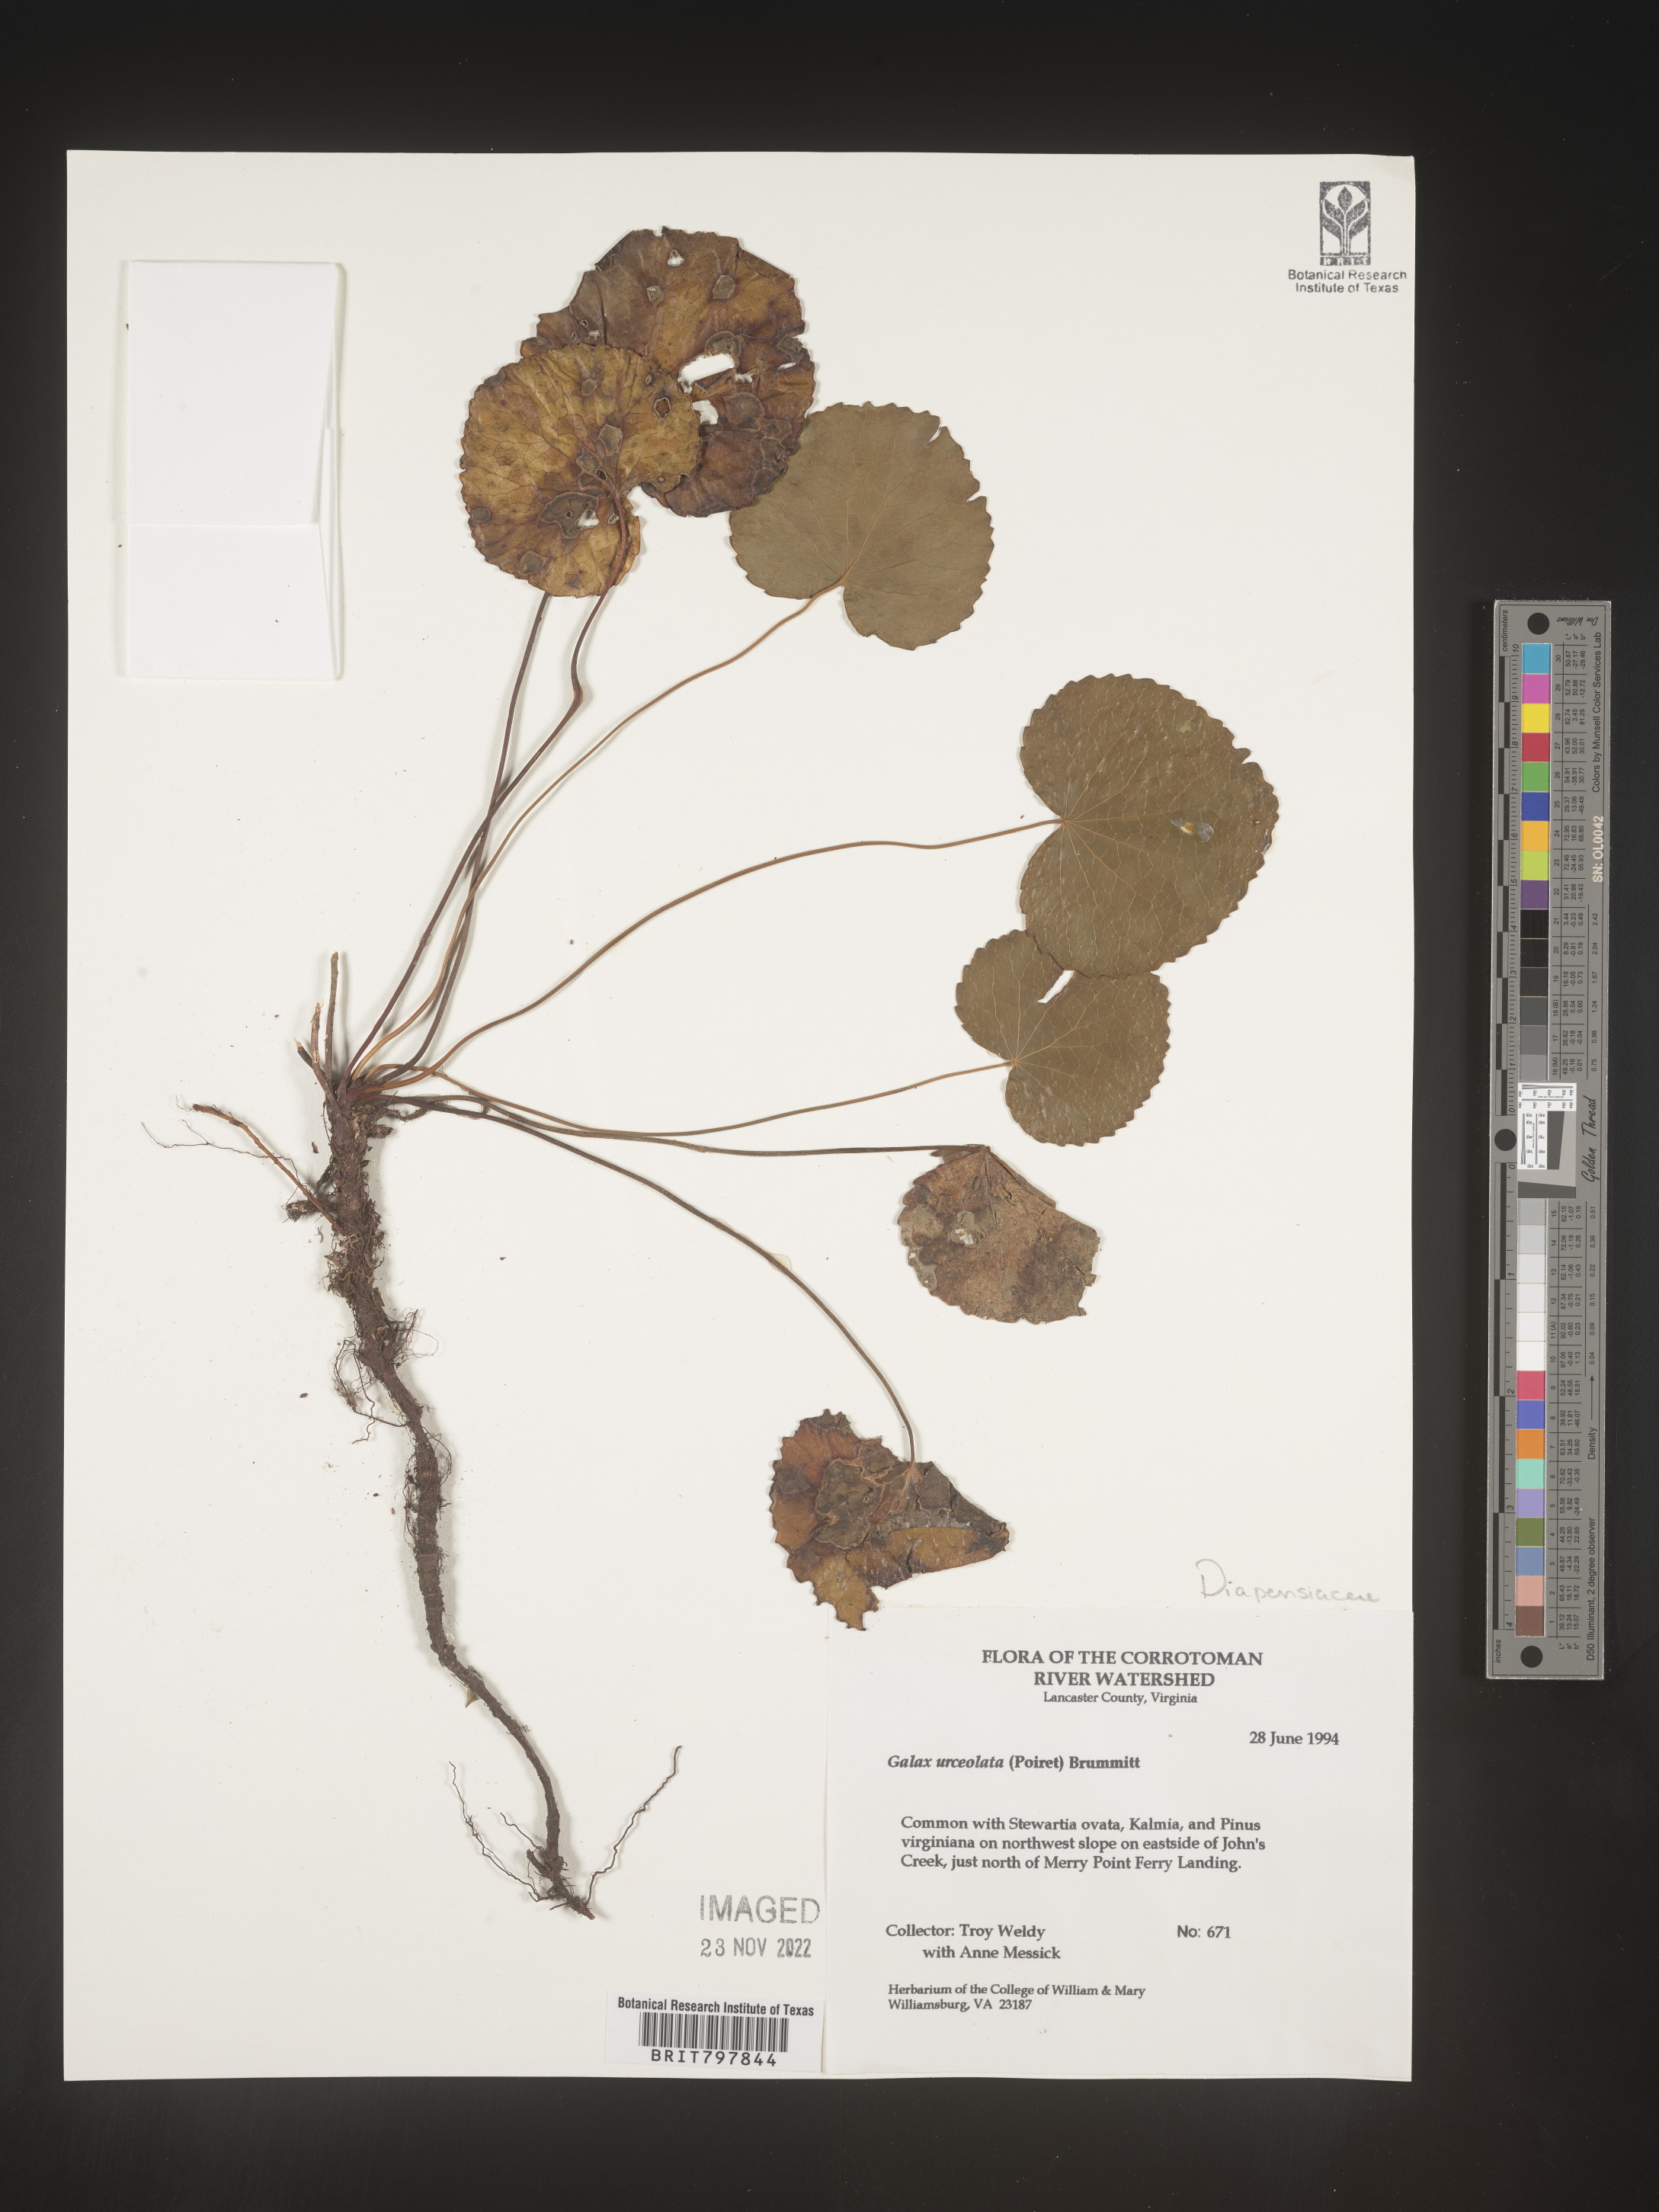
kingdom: Plantae
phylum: Tracheophyta
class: Magnoliopsida
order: Ericales
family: Diapensiaceae
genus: Galax
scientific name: Galax
